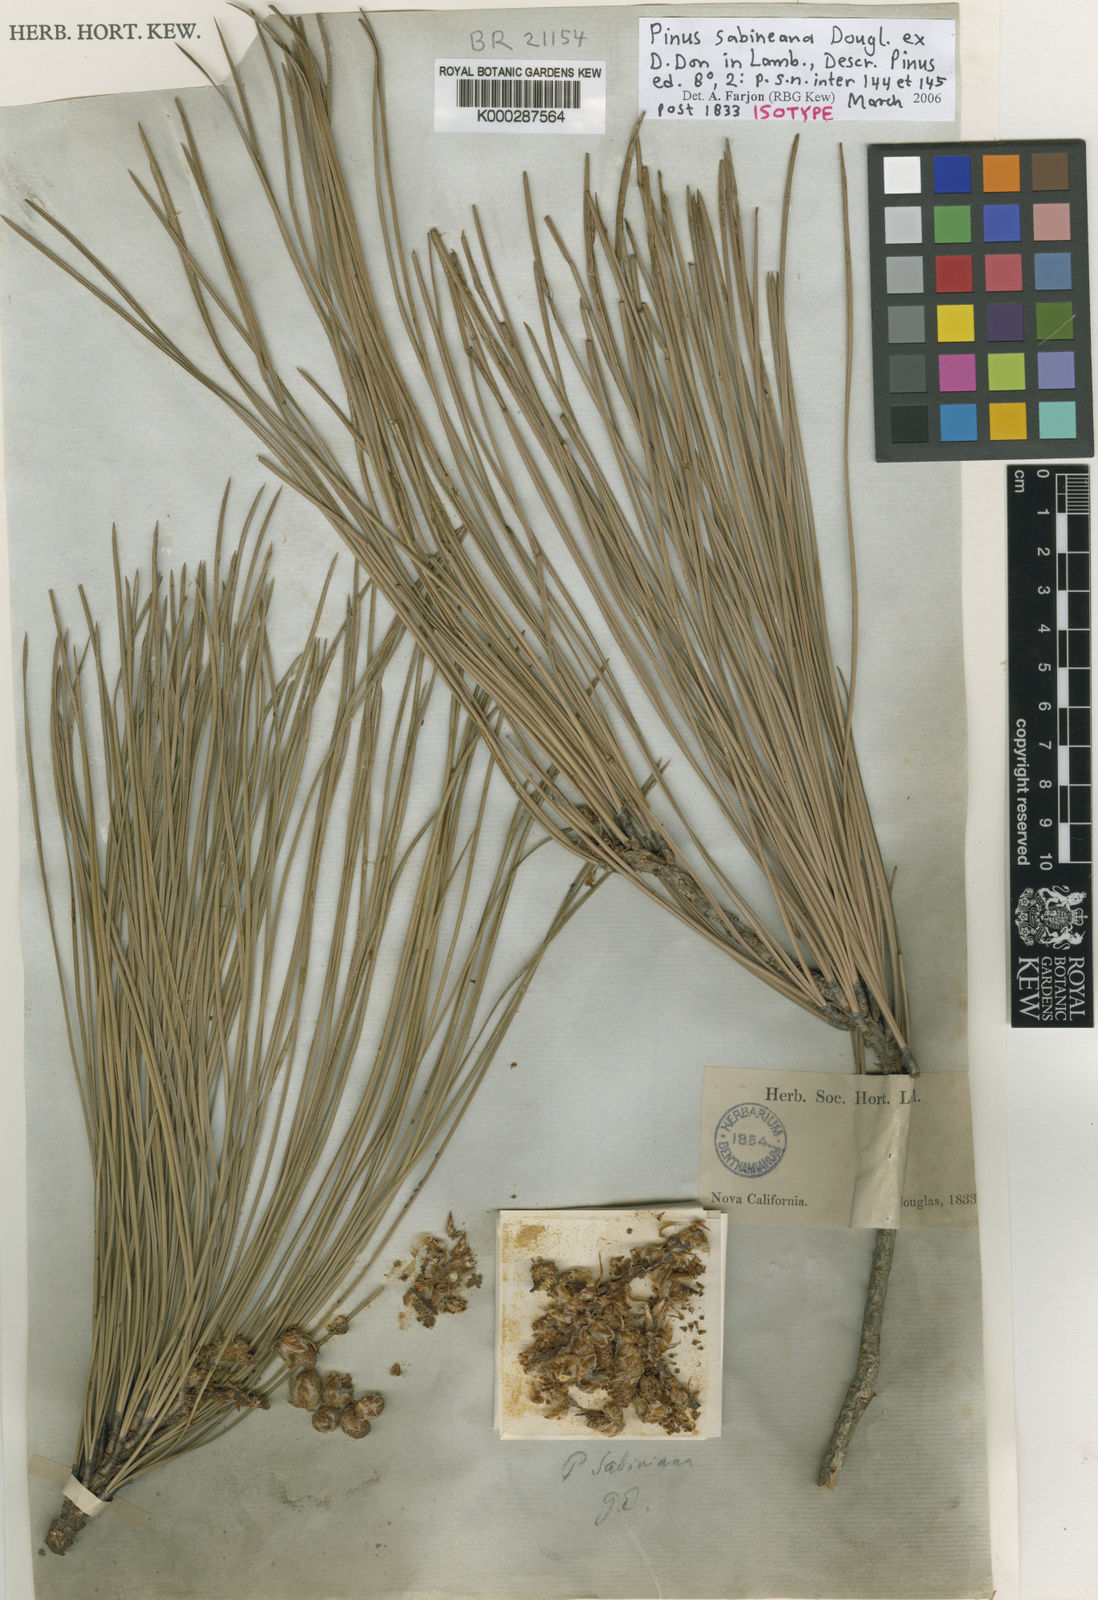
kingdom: Plantae
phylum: Tracheophyta
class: Pinopsida
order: Pinales
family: Pinaceae
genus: Pinus
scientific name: Pinus sabiniana
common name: Bull pine
